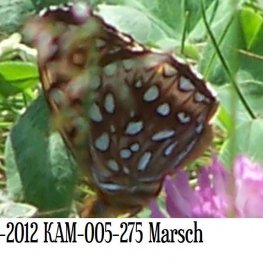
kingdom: Animalia
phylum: Arthropoda
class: Insecta
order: Lepidoptera
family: Nymphalidae
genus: Speyeria
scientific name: Speyeria atlantis
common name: Atlantis Fritillary
